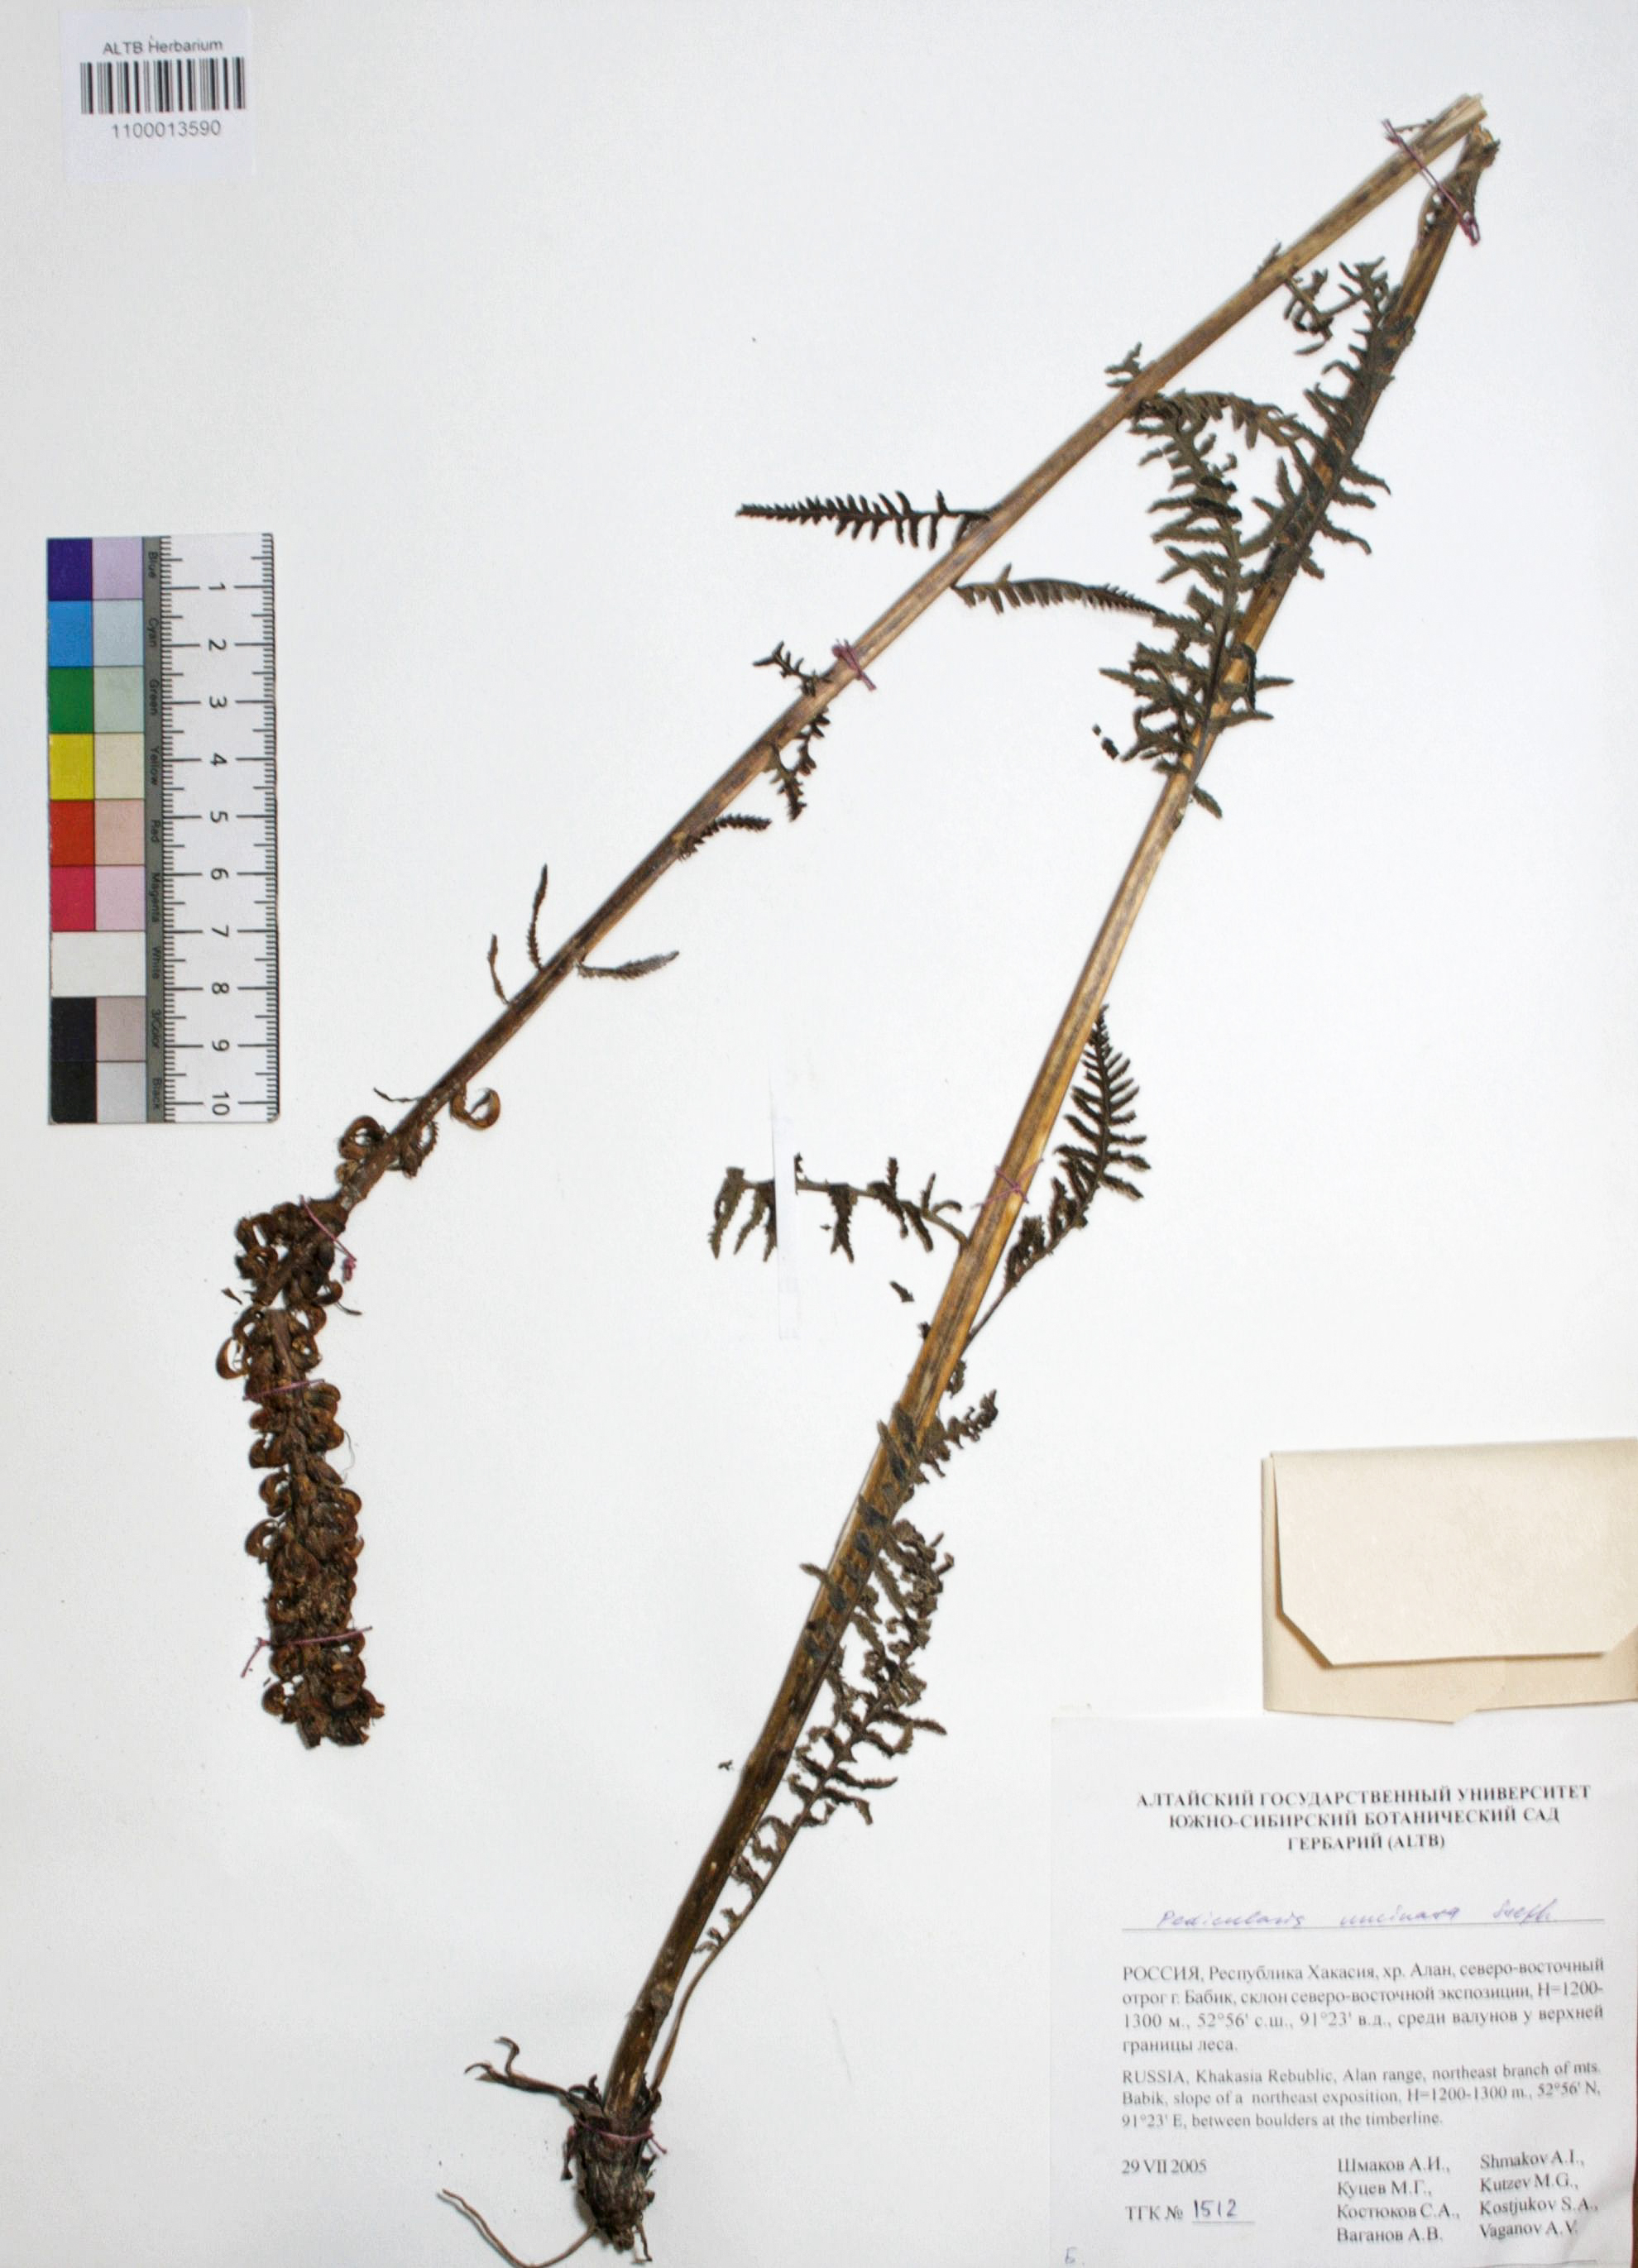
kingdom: Plantae
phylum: Tracheophyta
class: Magnoliopsida
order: Lamiales
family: Orobanchaceae
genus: Pedicularis
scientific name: Pedicularis incarnata
